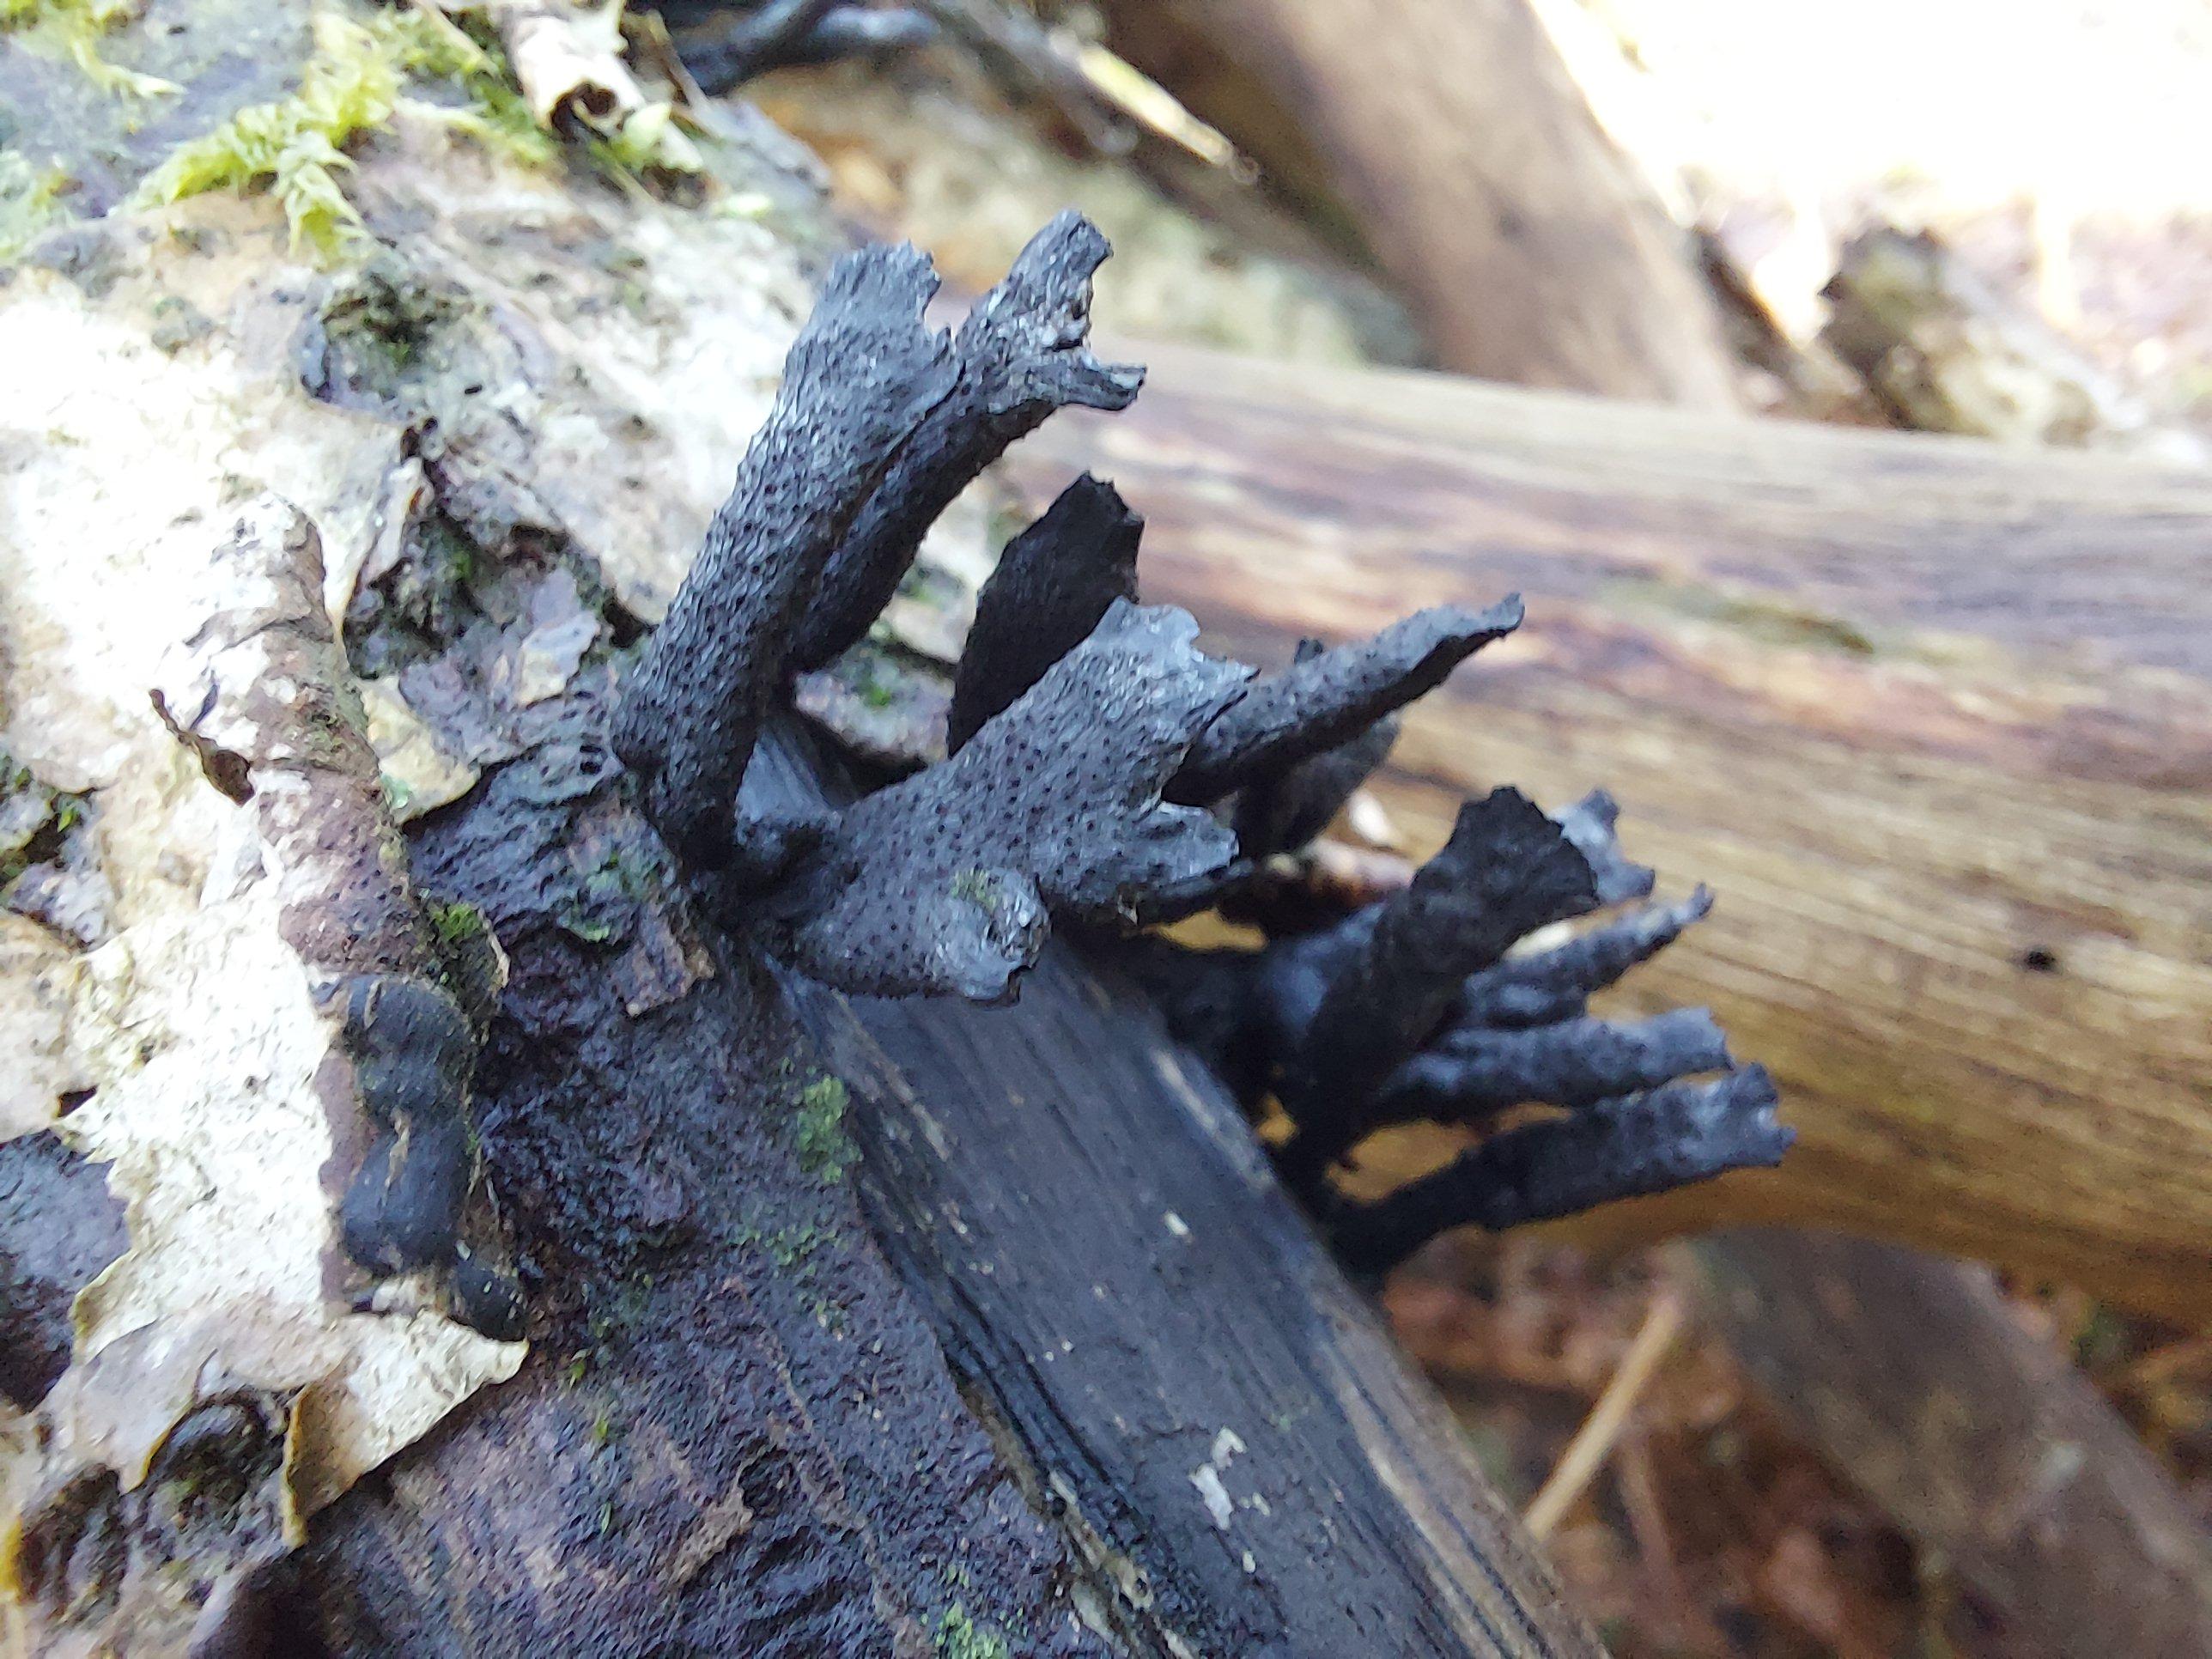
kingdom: Fungi
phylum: Ascomycota
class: Sordariomycetes
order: Xylariales
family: Xylariaceae
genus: Xylaria
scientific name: Xylaria hypoxylon
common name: grenet stødsvamp
